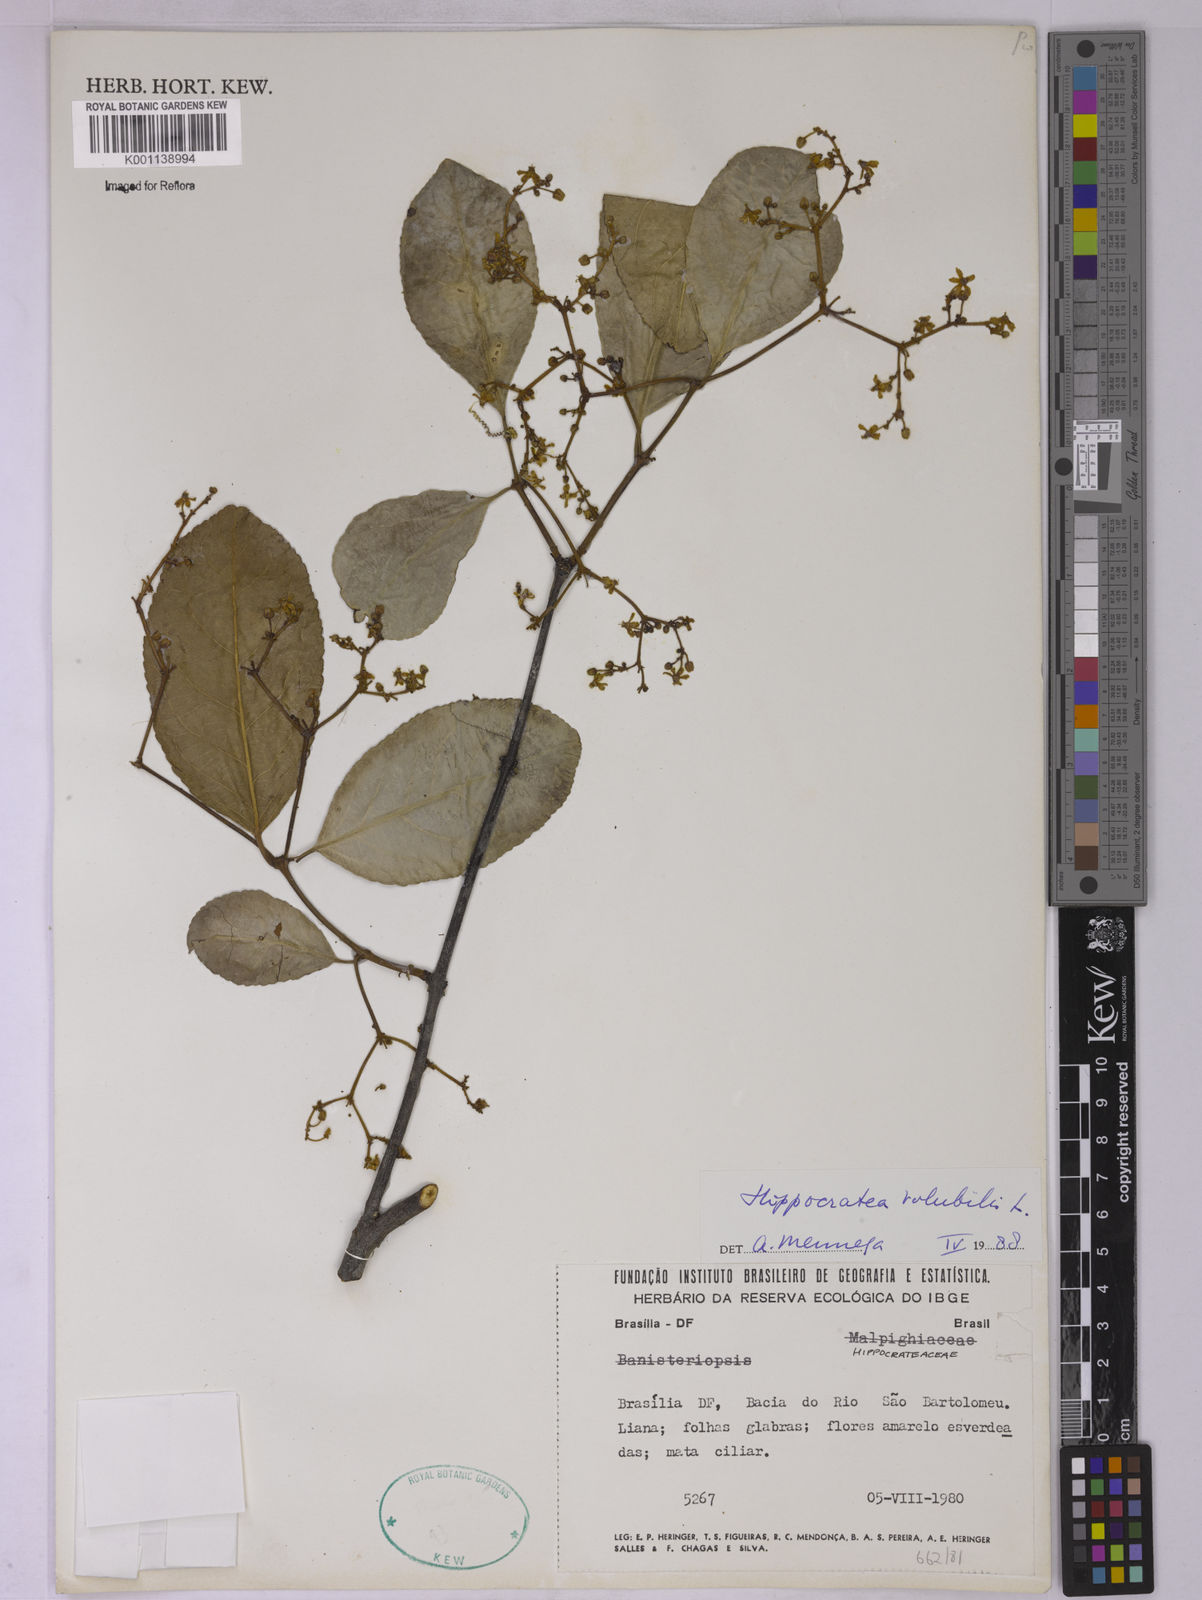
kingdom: Plantae
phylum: Tracheophyta
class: Magnoliopsida
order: Celastrales
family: Celastraceae
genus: Hippocratea
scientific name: Hippocratea volubilis
